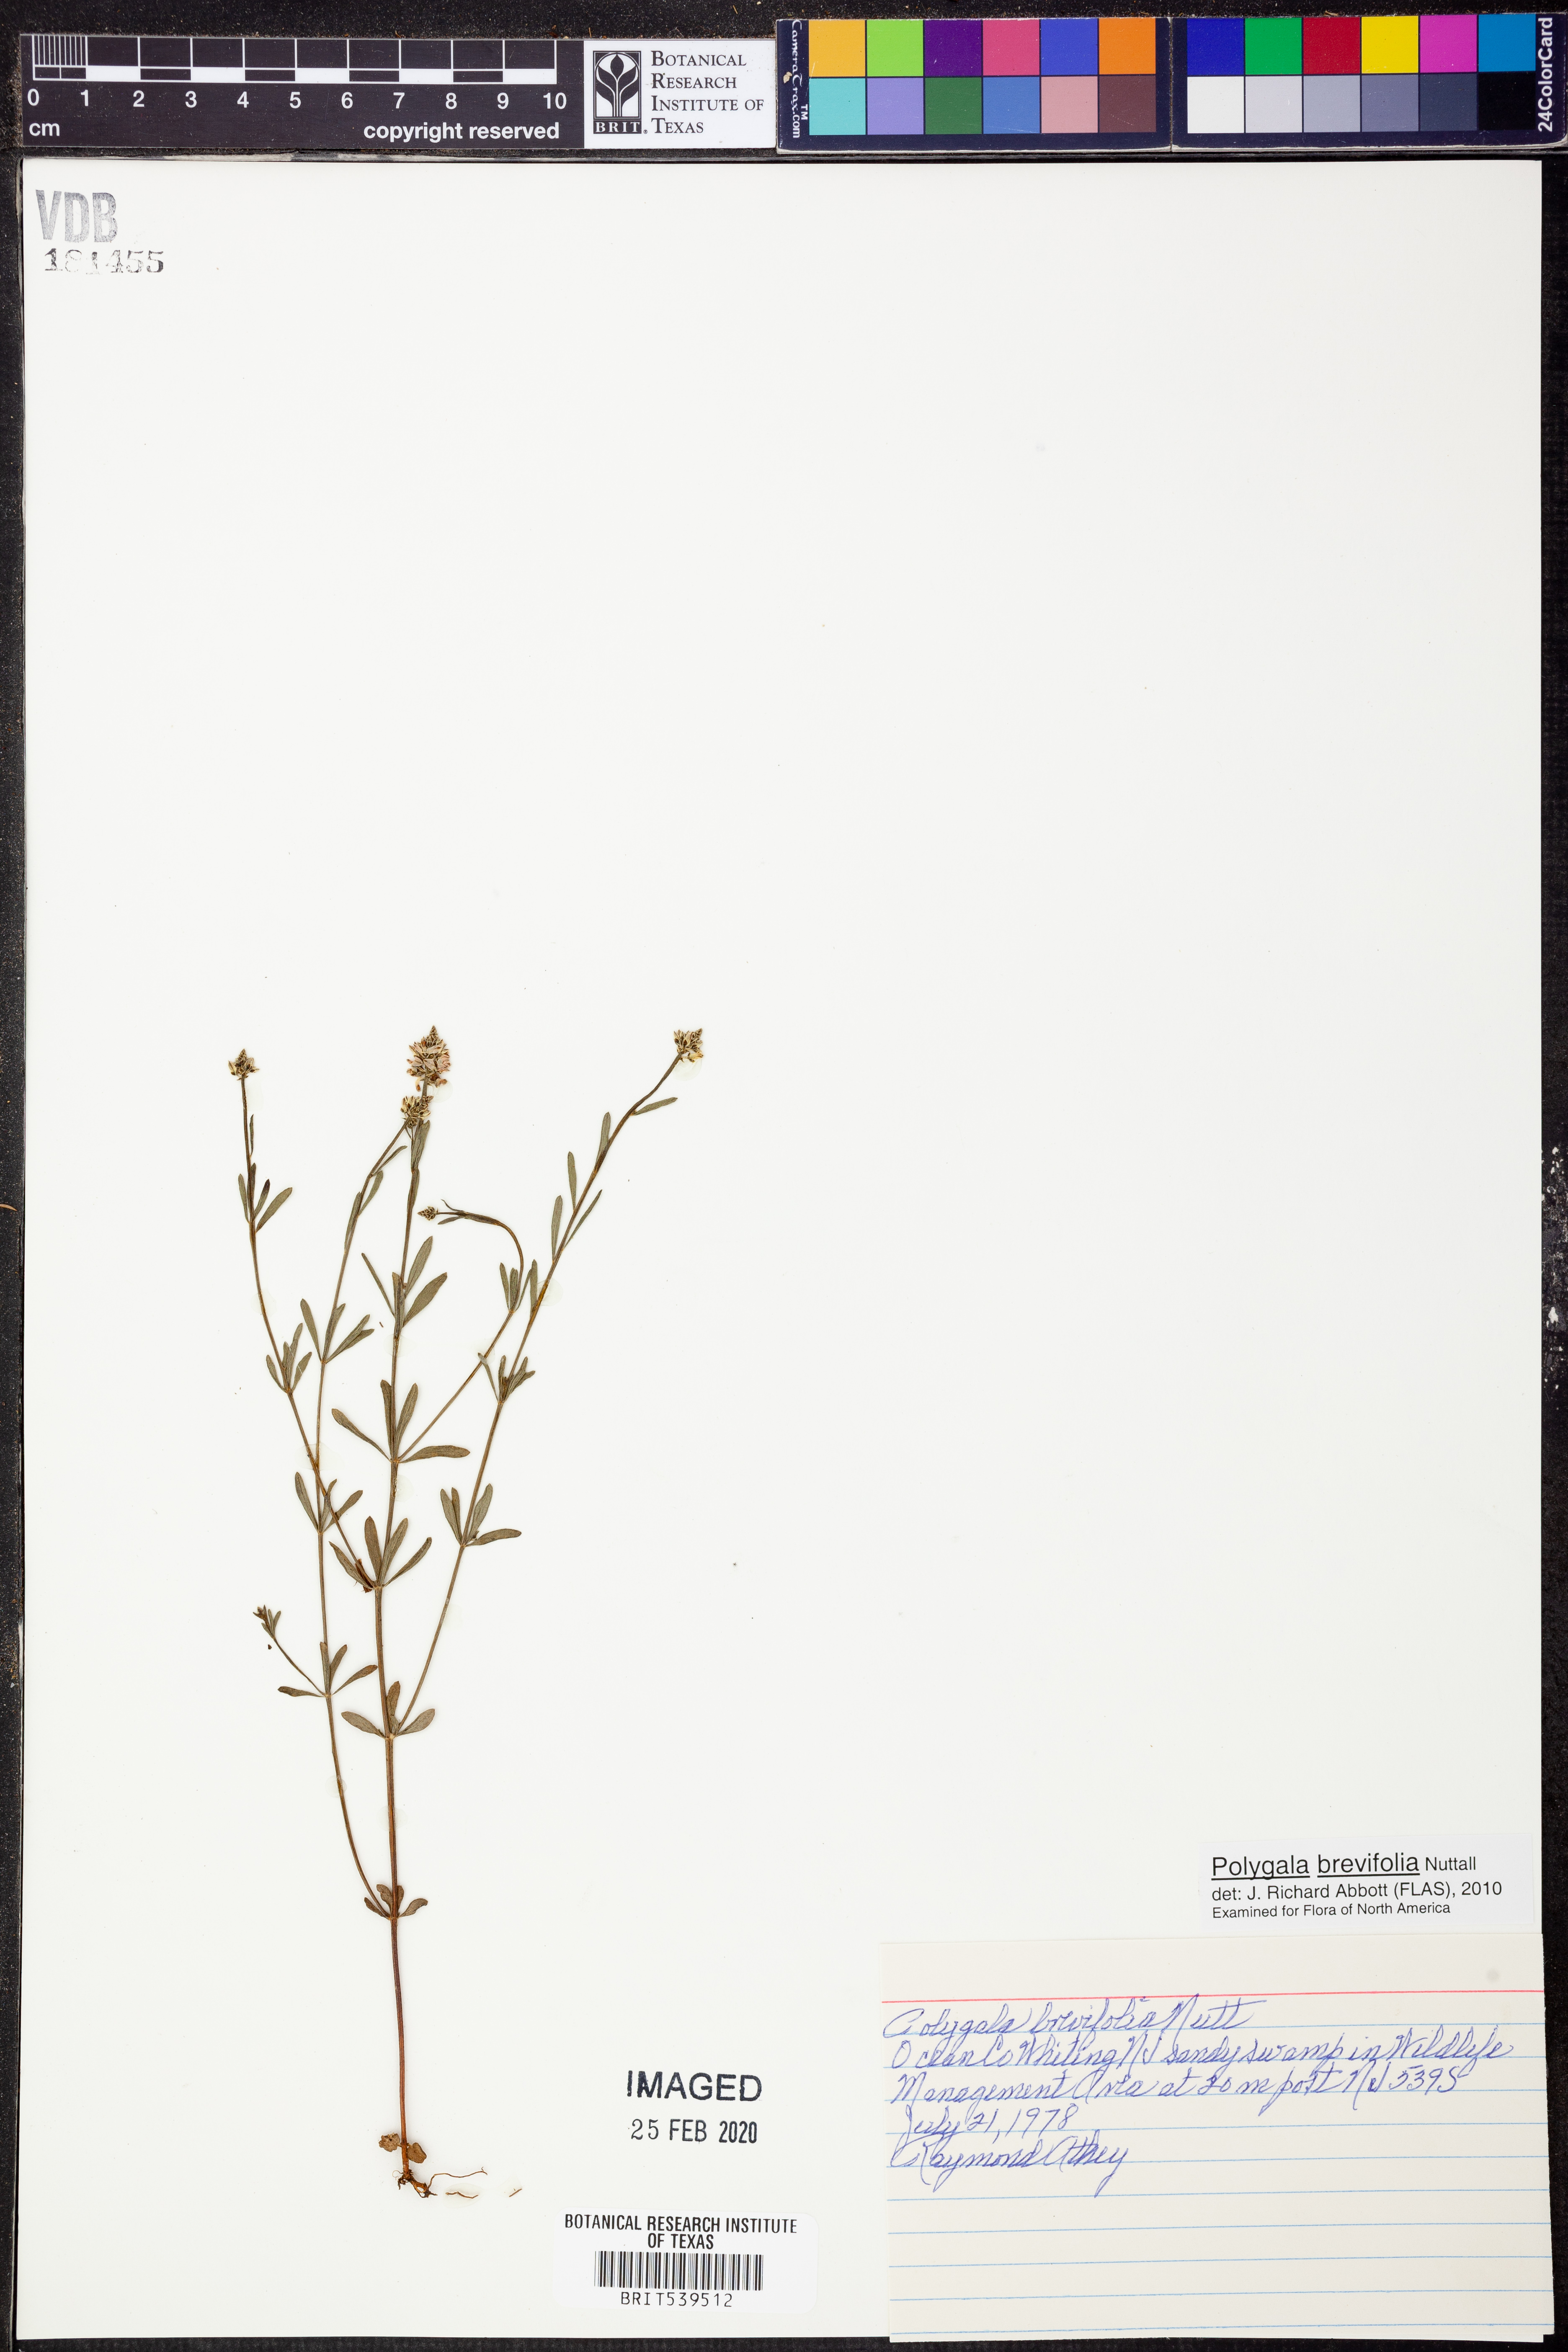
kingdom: Plantae
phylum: Tracheophyta
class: Magnoliopsida
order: Fabales
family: Polygalaceae
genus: Polygala
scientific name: Polygala brevifolia
